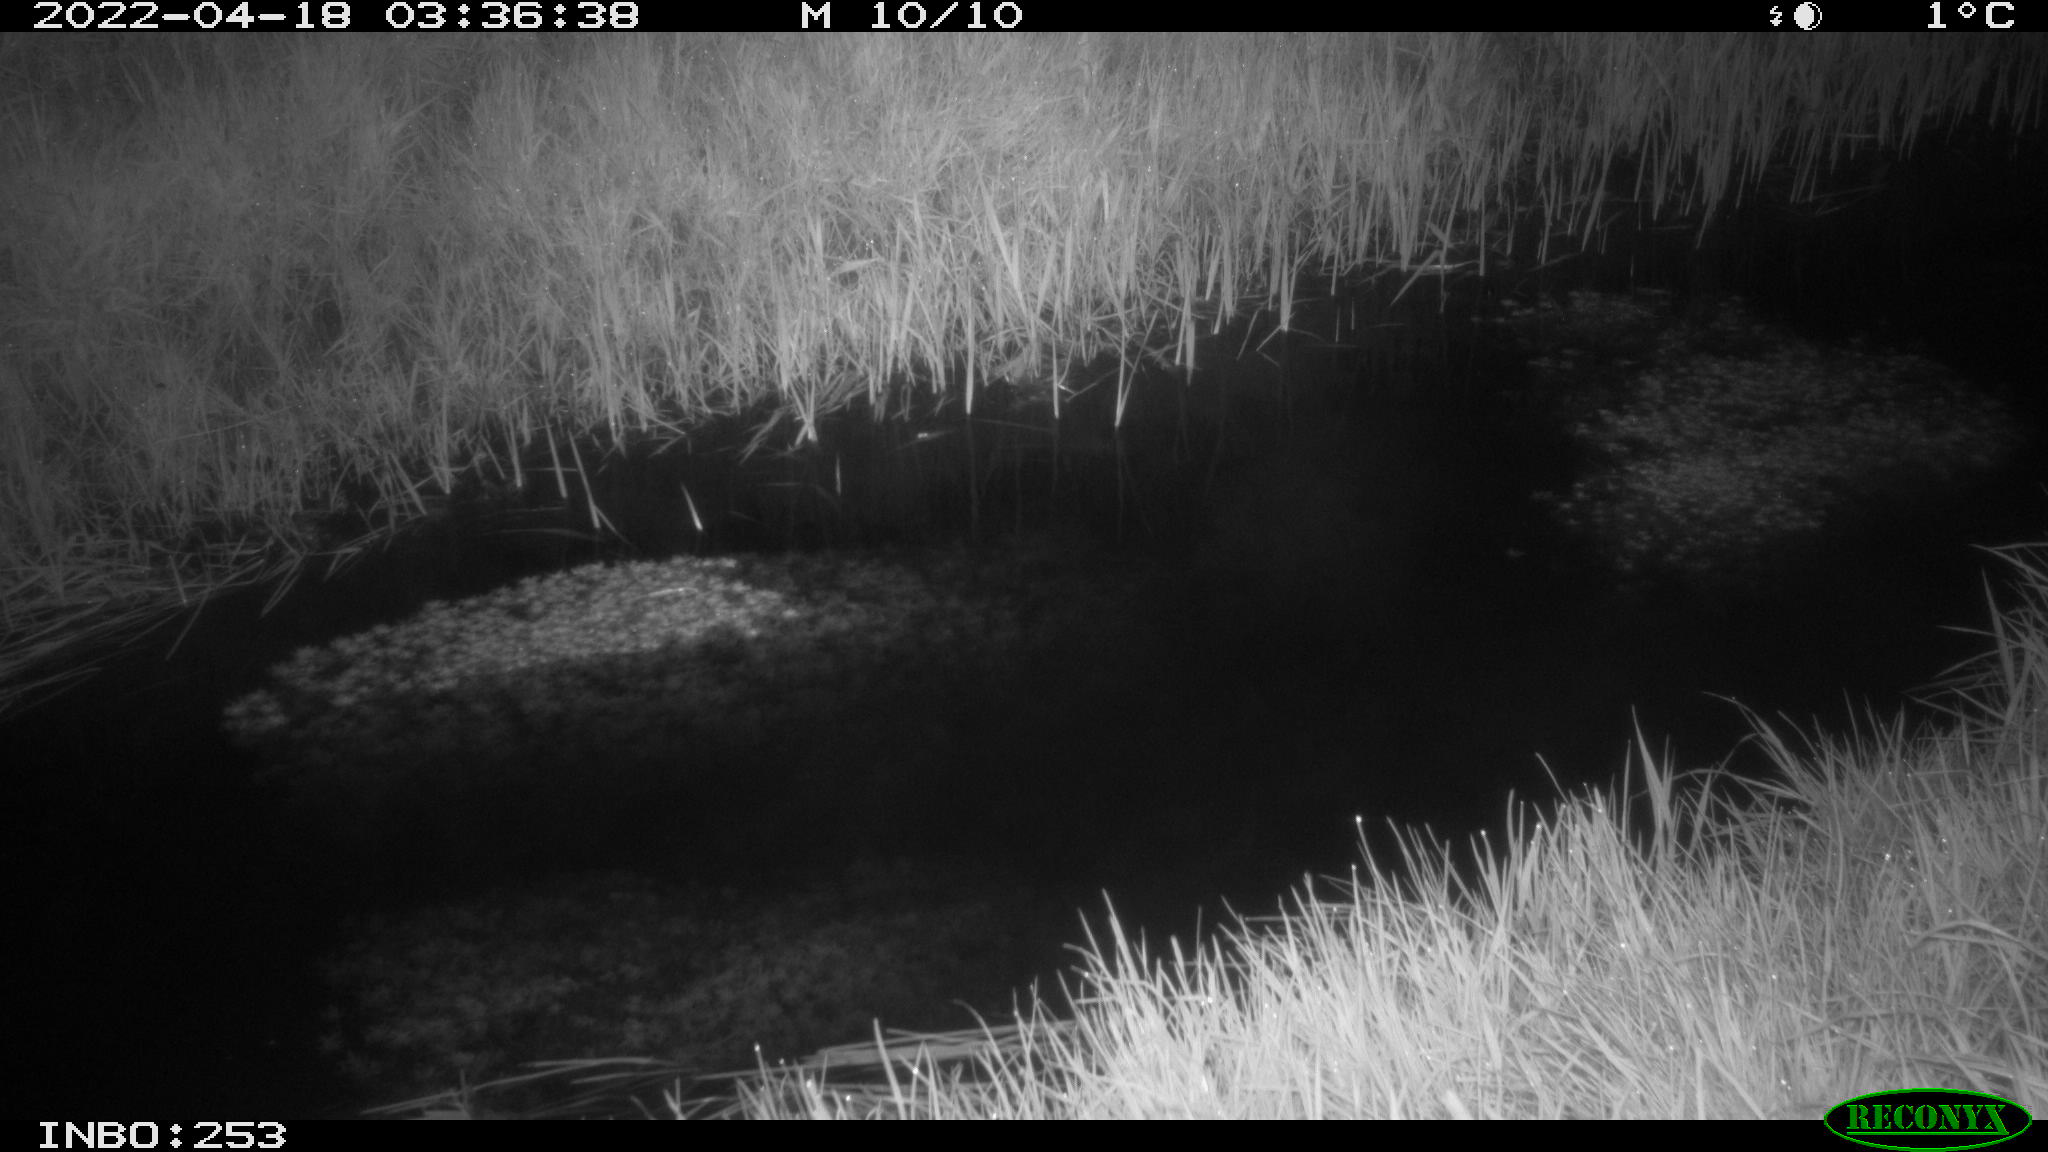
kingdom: Animalia
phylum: Chordata
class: Aves
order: Anseriformes
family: Anatidae
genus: Anas
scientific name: Anas platyrhynchos
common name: Mallard
